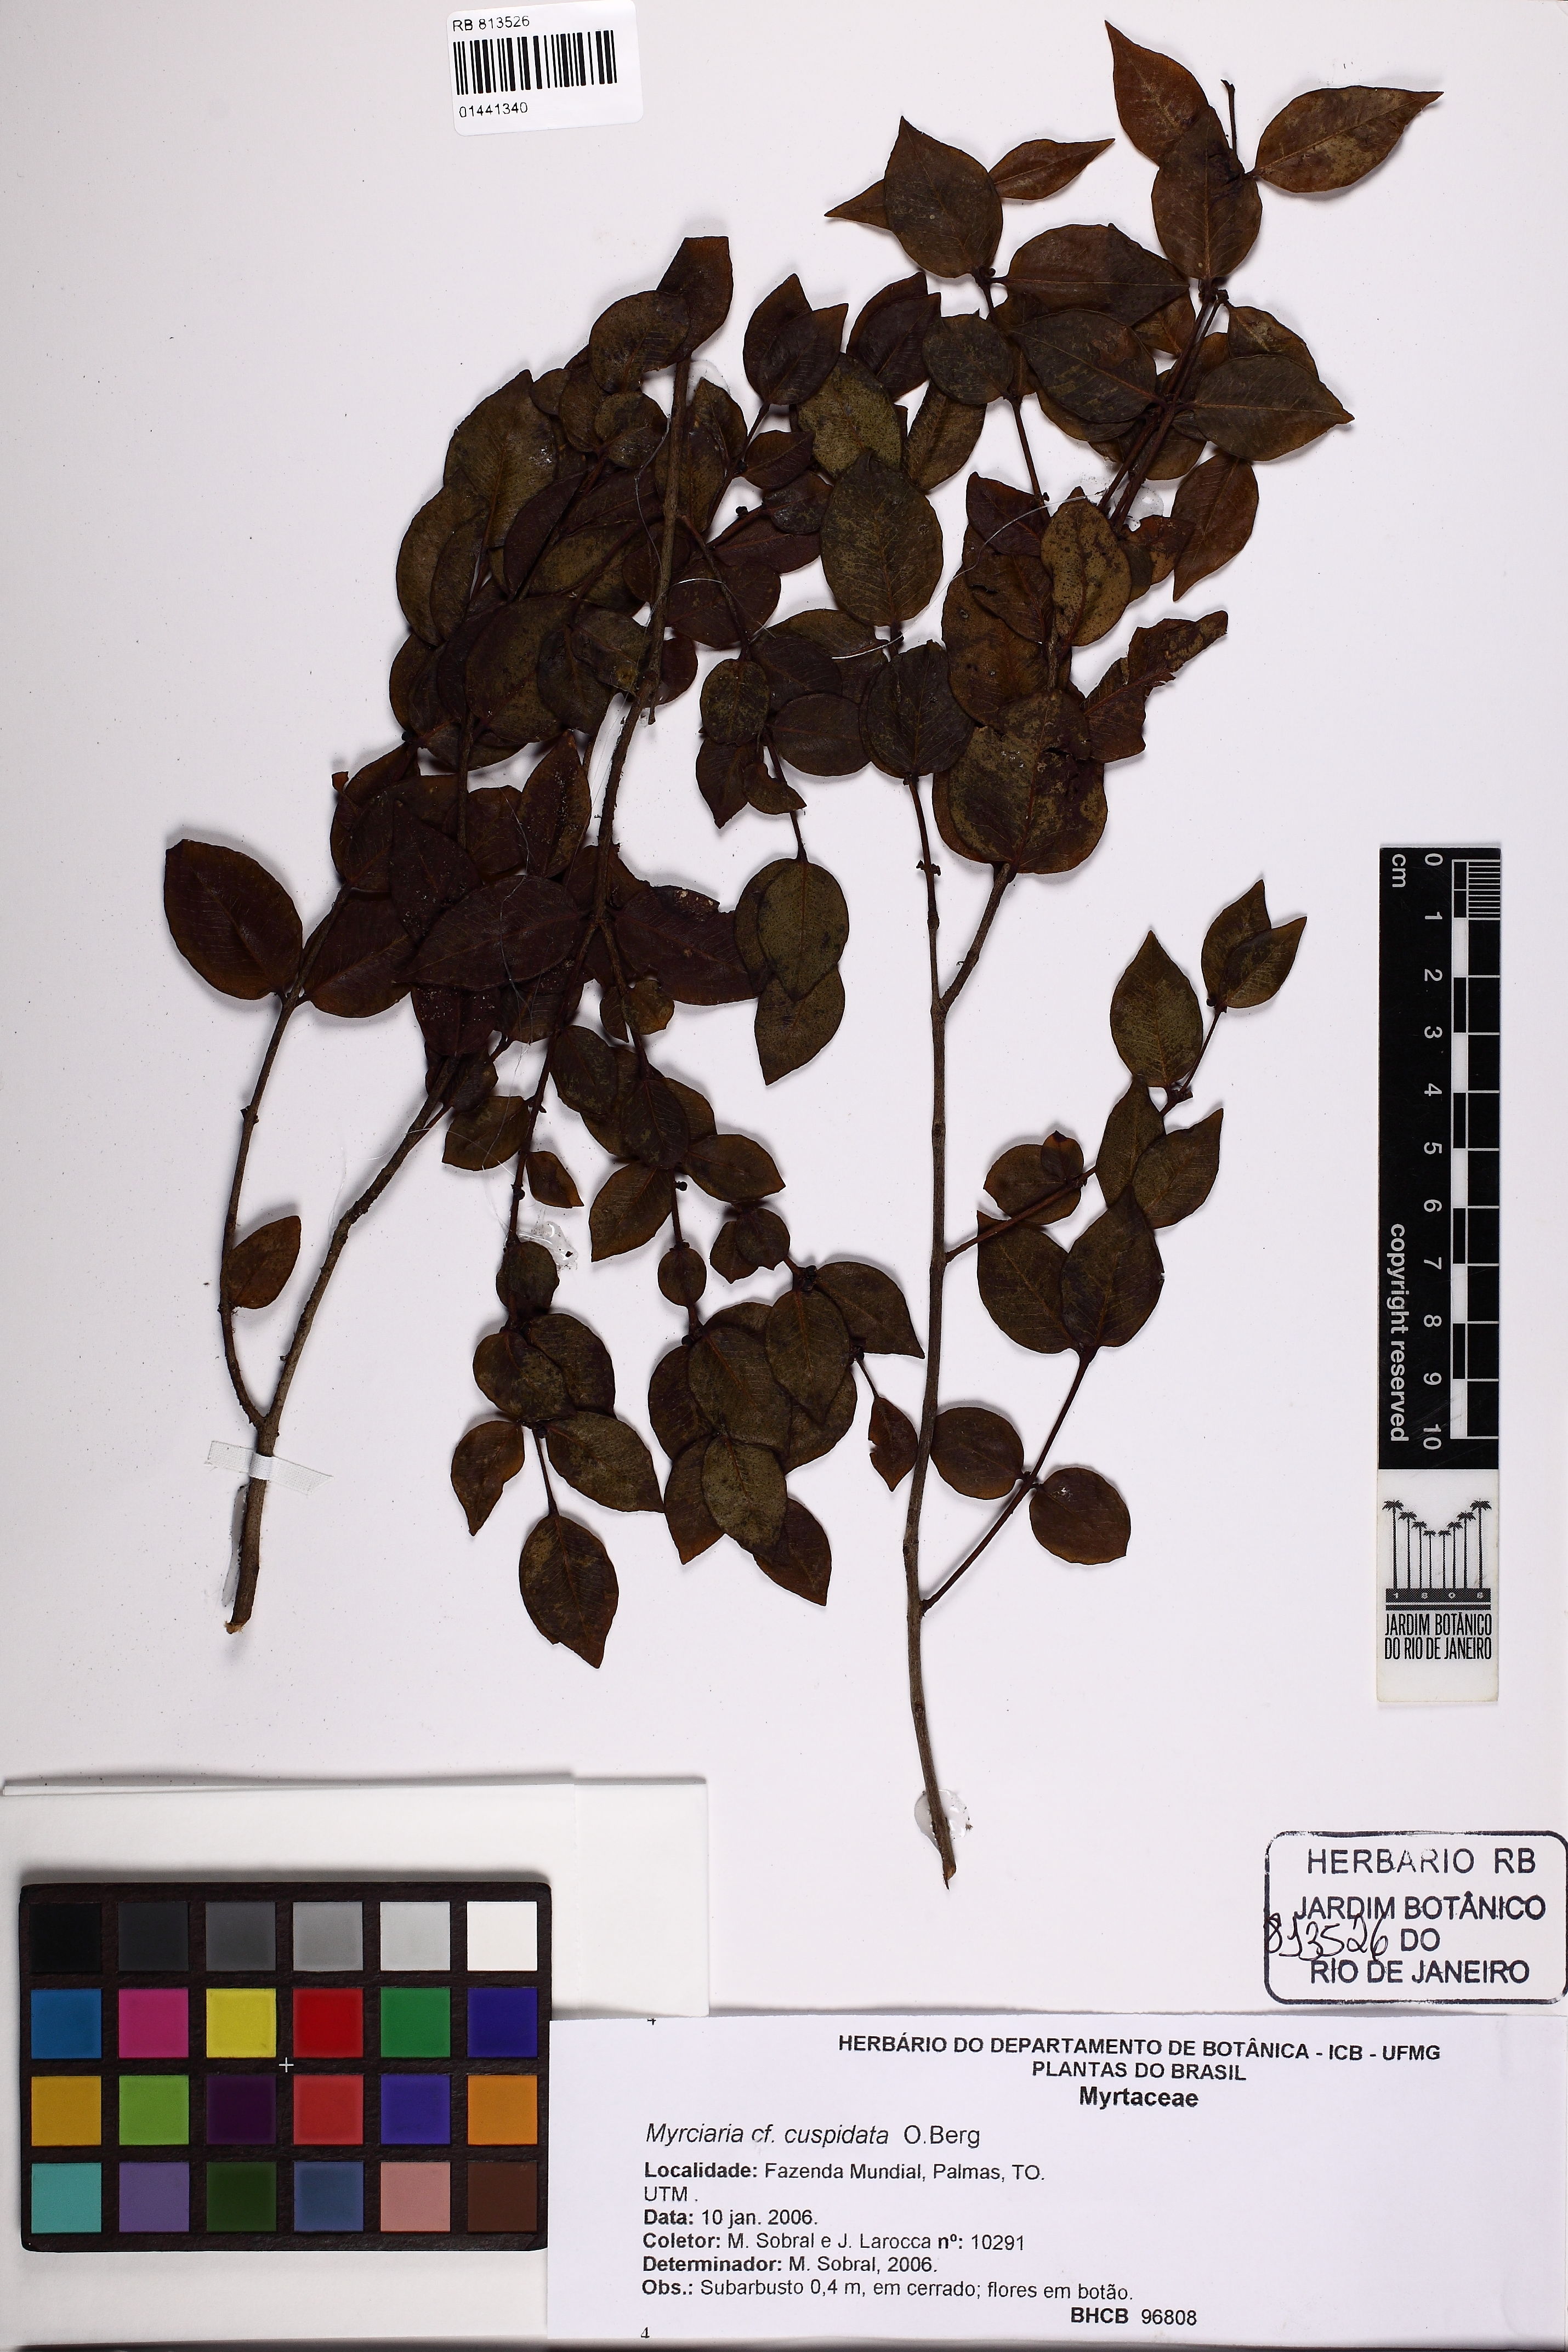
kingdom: Plantae
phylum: Tracheophyta
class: Magnoliopsida
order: Myrtales
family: Myrtaceae
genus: Myrciaria
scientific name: Myrciaria cuspidata
